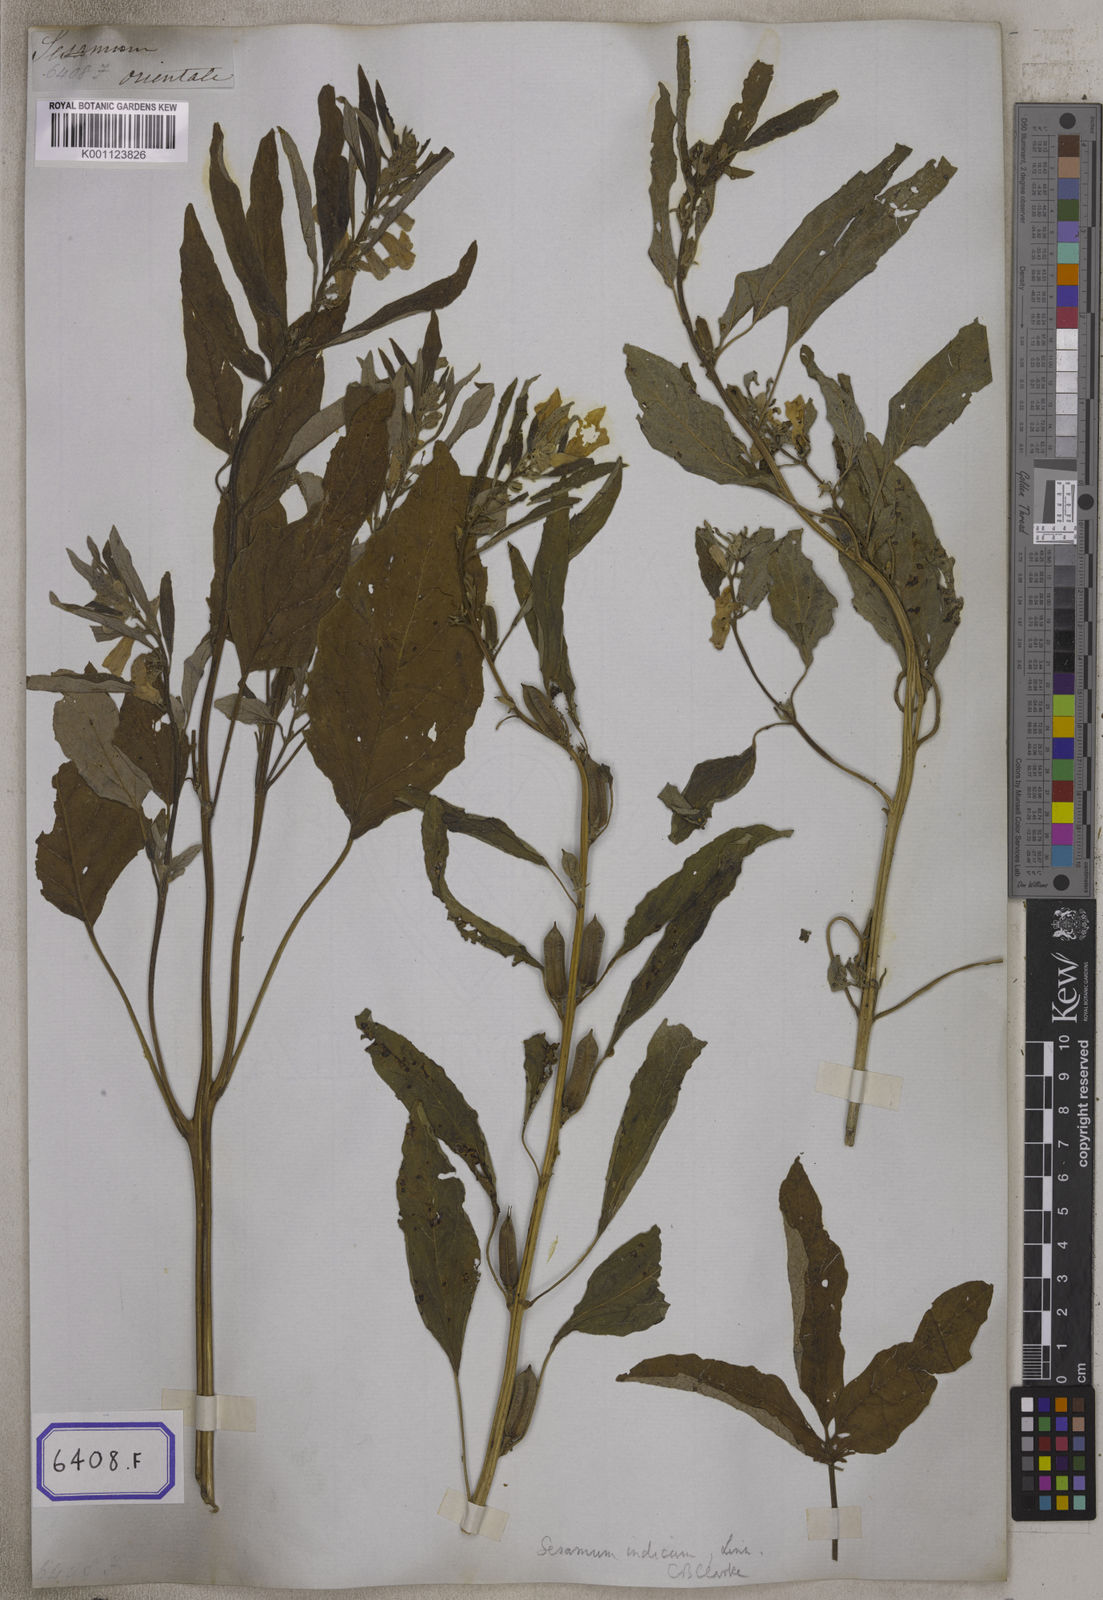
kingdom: Plantae
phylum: Tracheophyta
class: Magnoliopsida
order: Lamiales
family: Pedaliaceae
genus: Sesamum
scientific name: Sesamum indicum
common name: Sesame
